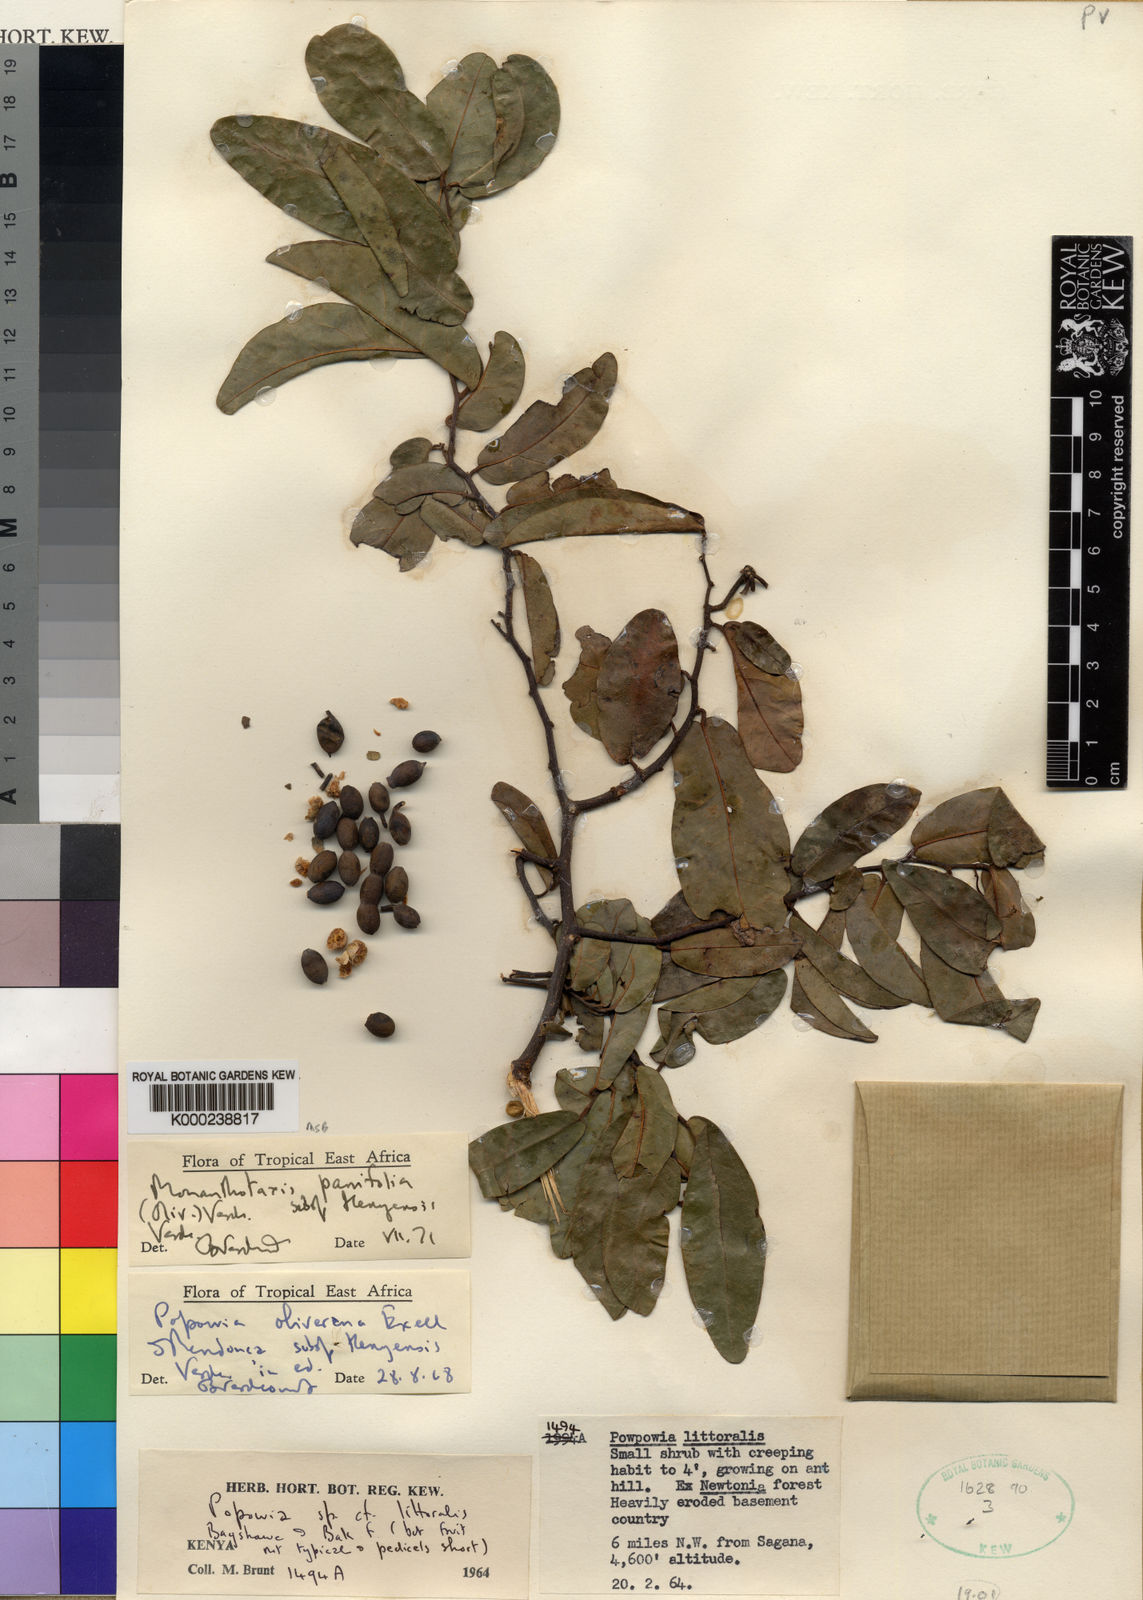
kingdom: Plantae
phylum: Tracheophyta
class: Magnoliopsida
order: Magnoliales
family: Annonaceae
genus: Monanthotaxis
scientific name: Monanthotaxis parvifolia
